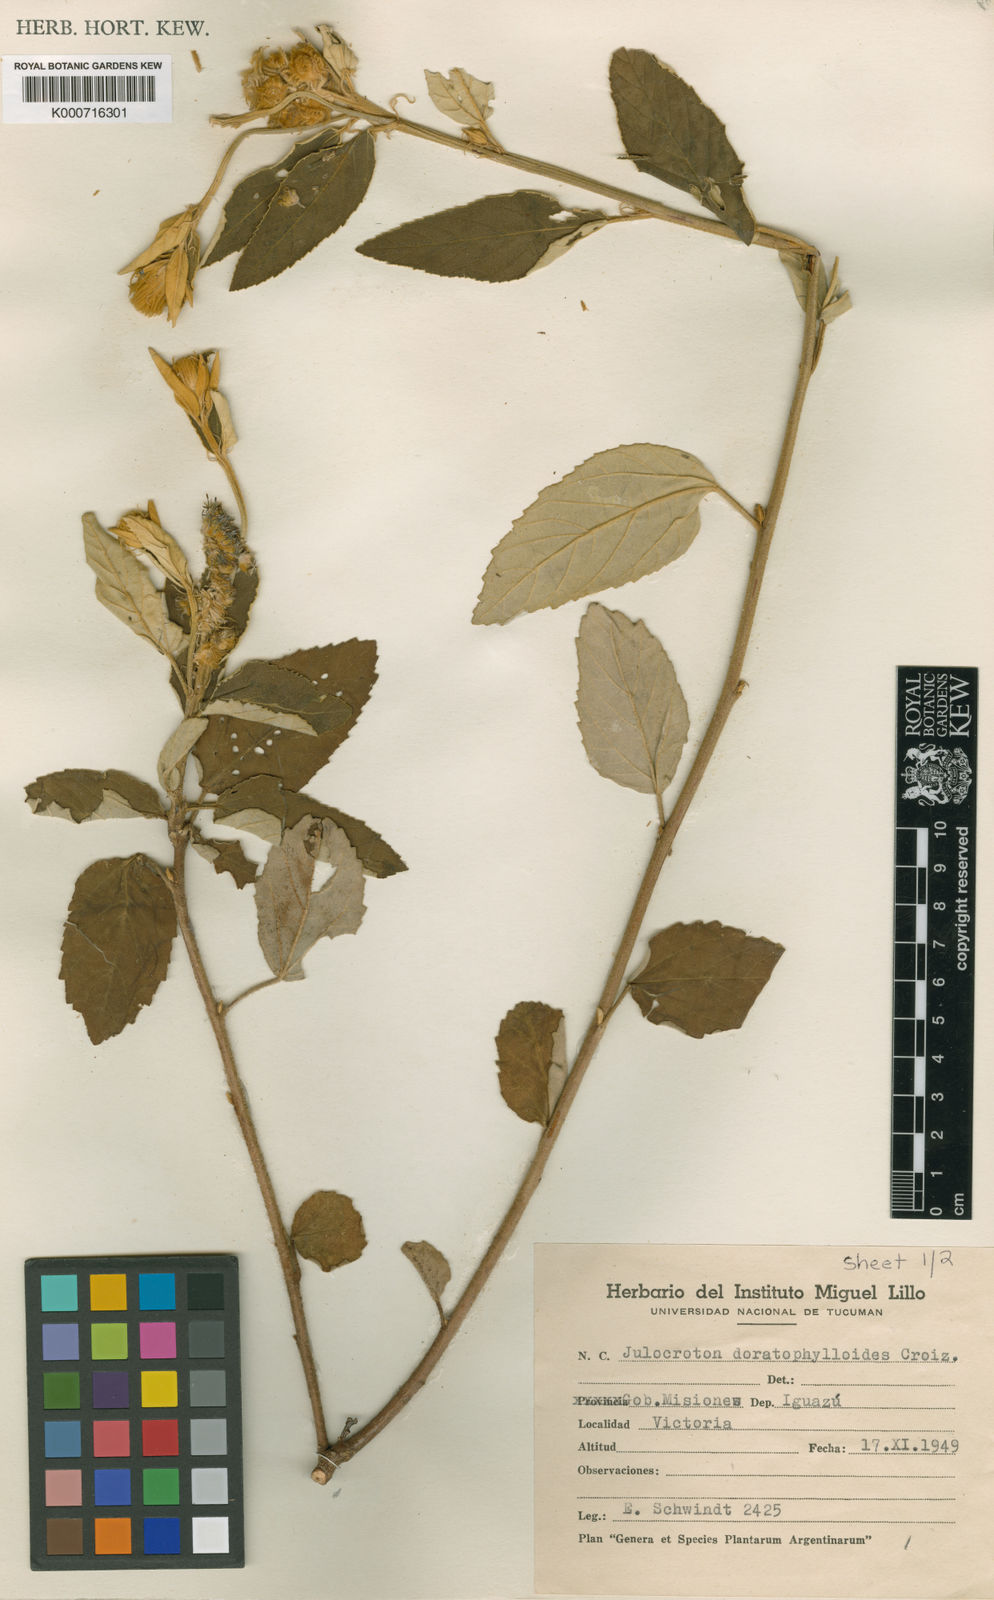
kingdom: Plantae
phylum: Tracheophyta
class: Magnoliopsida
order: Malpighiales
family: Euphorbiaceae
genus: Croton
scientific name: Croton doratophylloides
